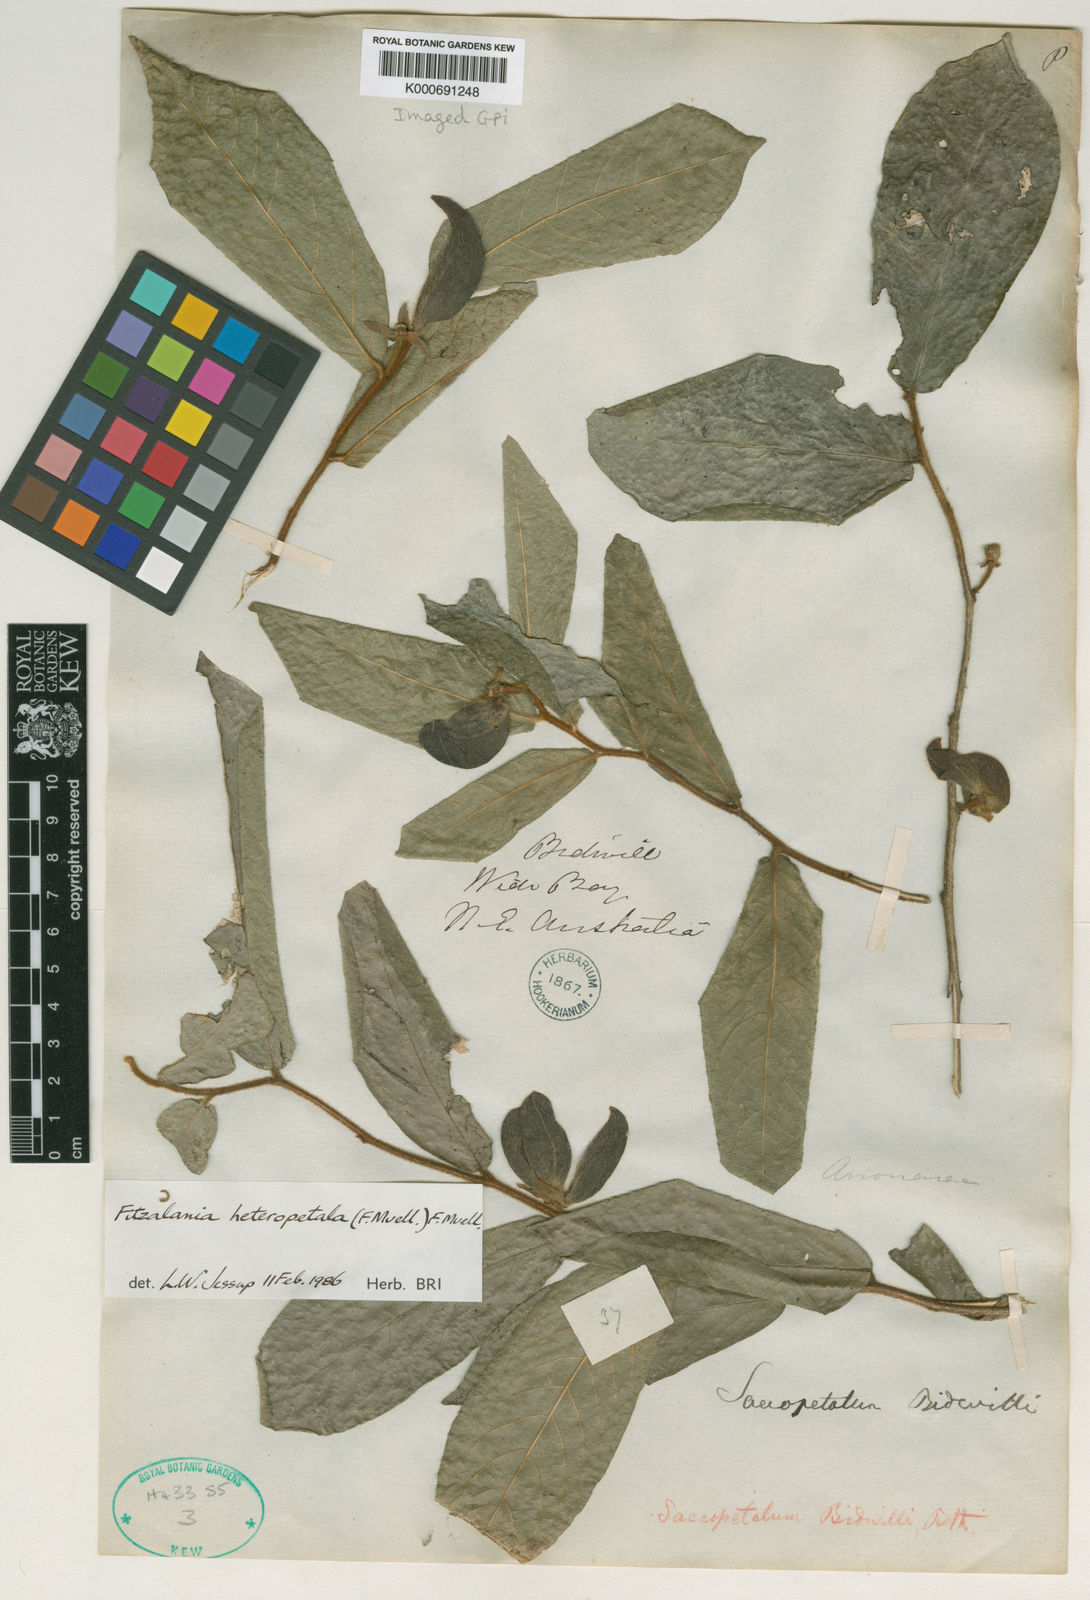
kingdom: Plantae
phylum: Tracheophyta
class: Magnoliopsida
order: Magnoliales
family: Annonaceae
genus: Fitzalania
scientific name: Fitzalania heteropetala
